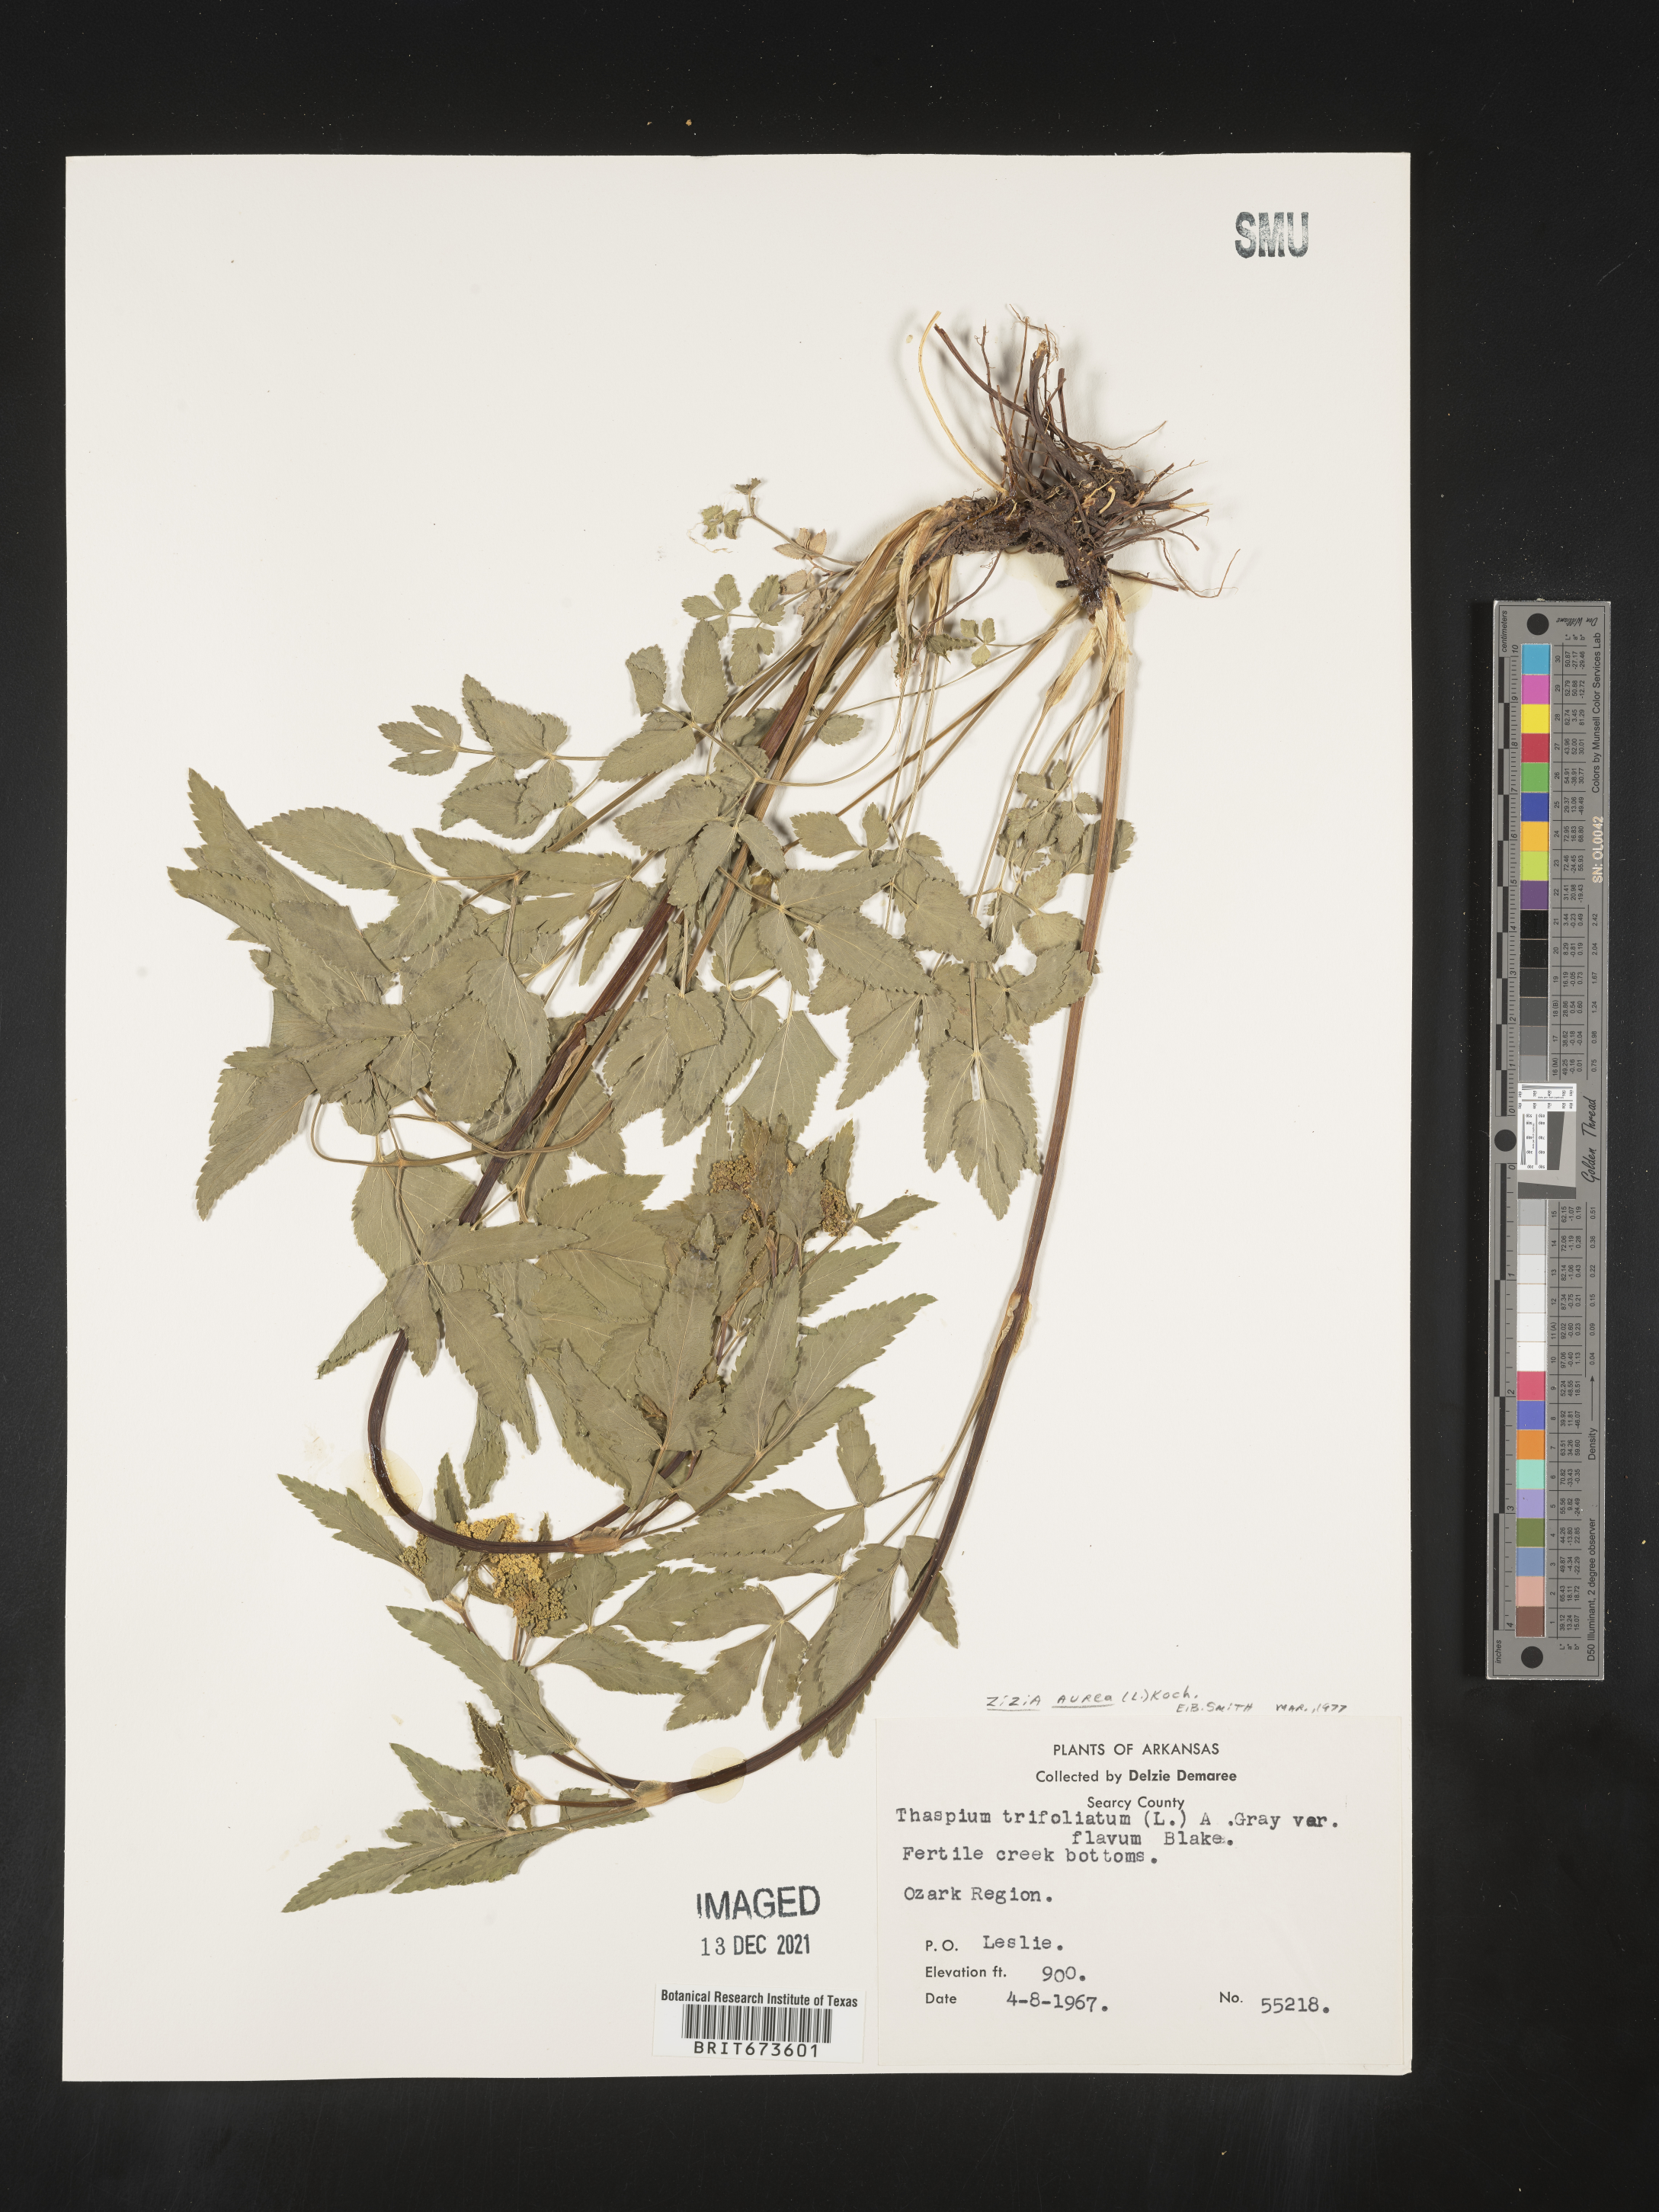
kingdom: Plantae
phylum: Tracheophyta
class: Magnoliopsida
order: Apiales
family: Apiaceae
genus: Zizia
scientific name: Zizia aurea
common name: Golden alexanders
